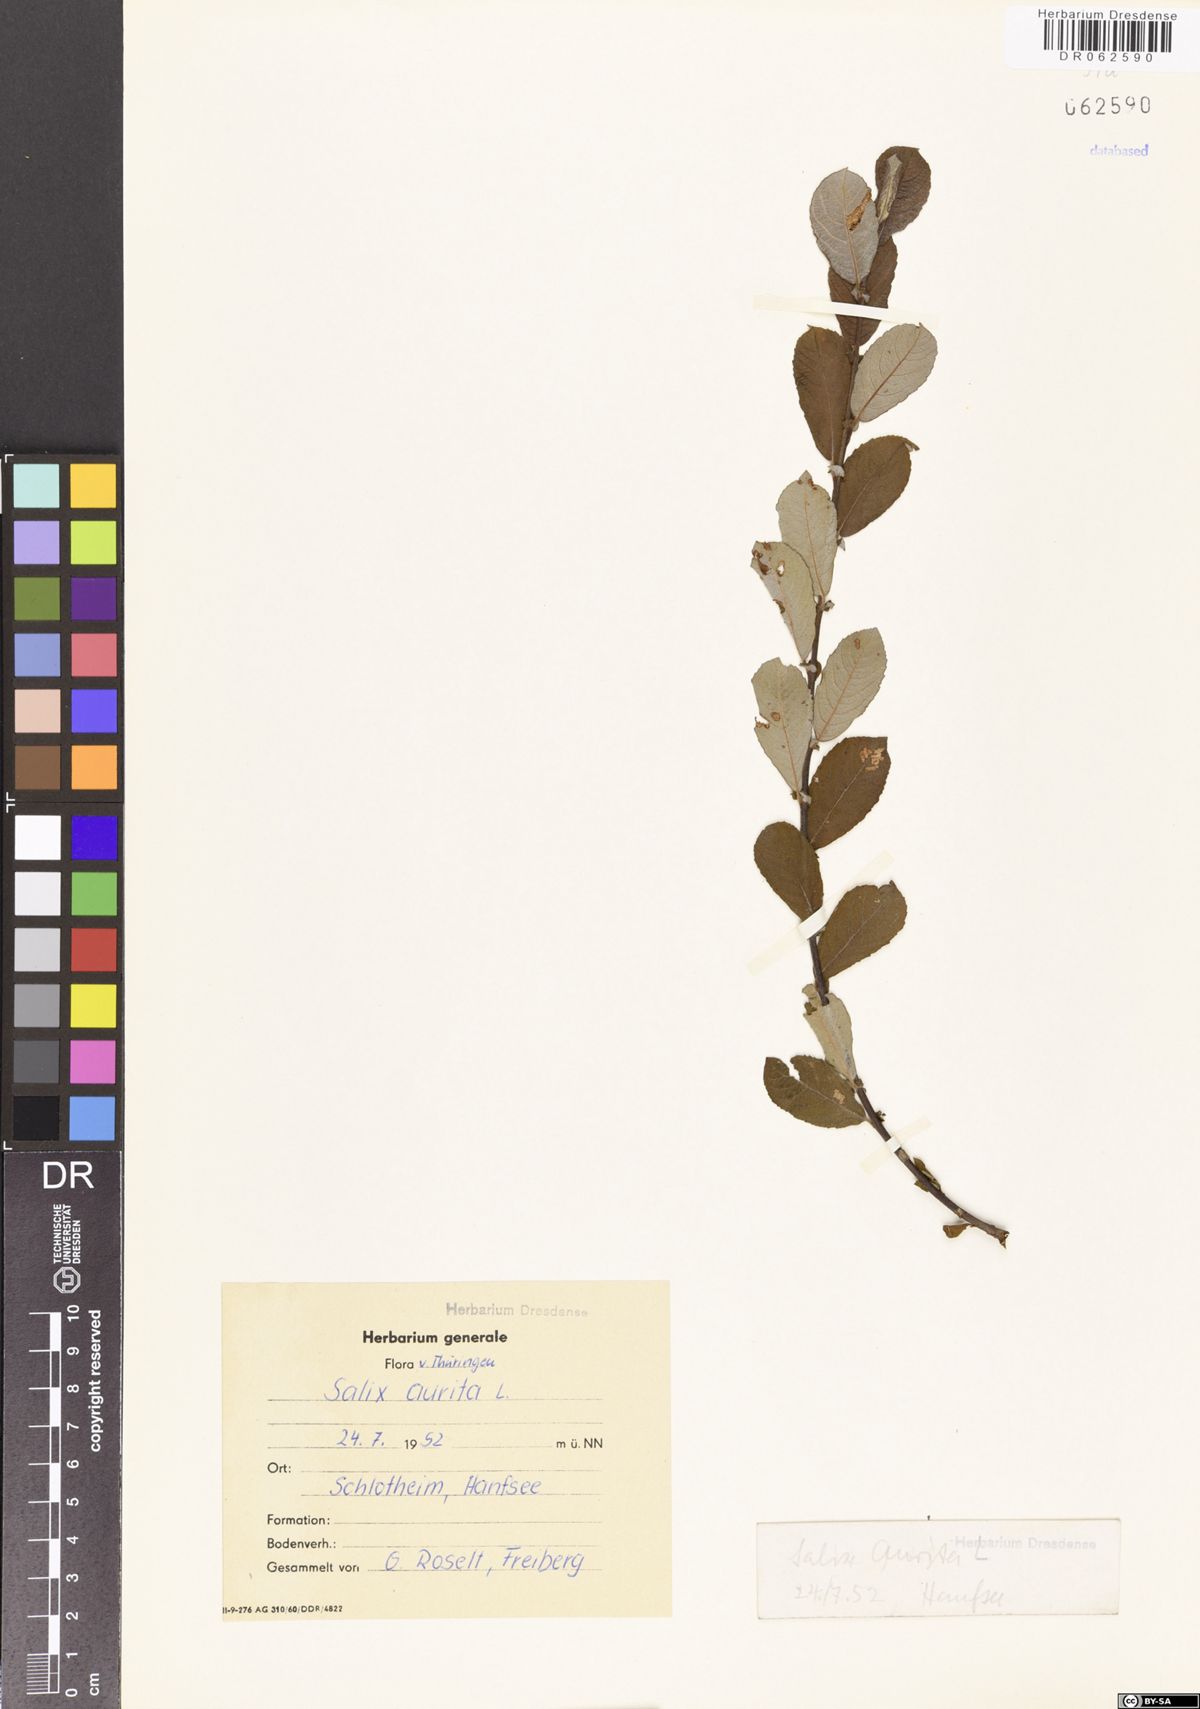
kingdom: Plantae
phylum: Tracheophyta
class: Magnoliopsida
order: Malpighiales
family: Salicaceae
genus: Salix
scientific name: Salix aurita
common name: Eared willow
